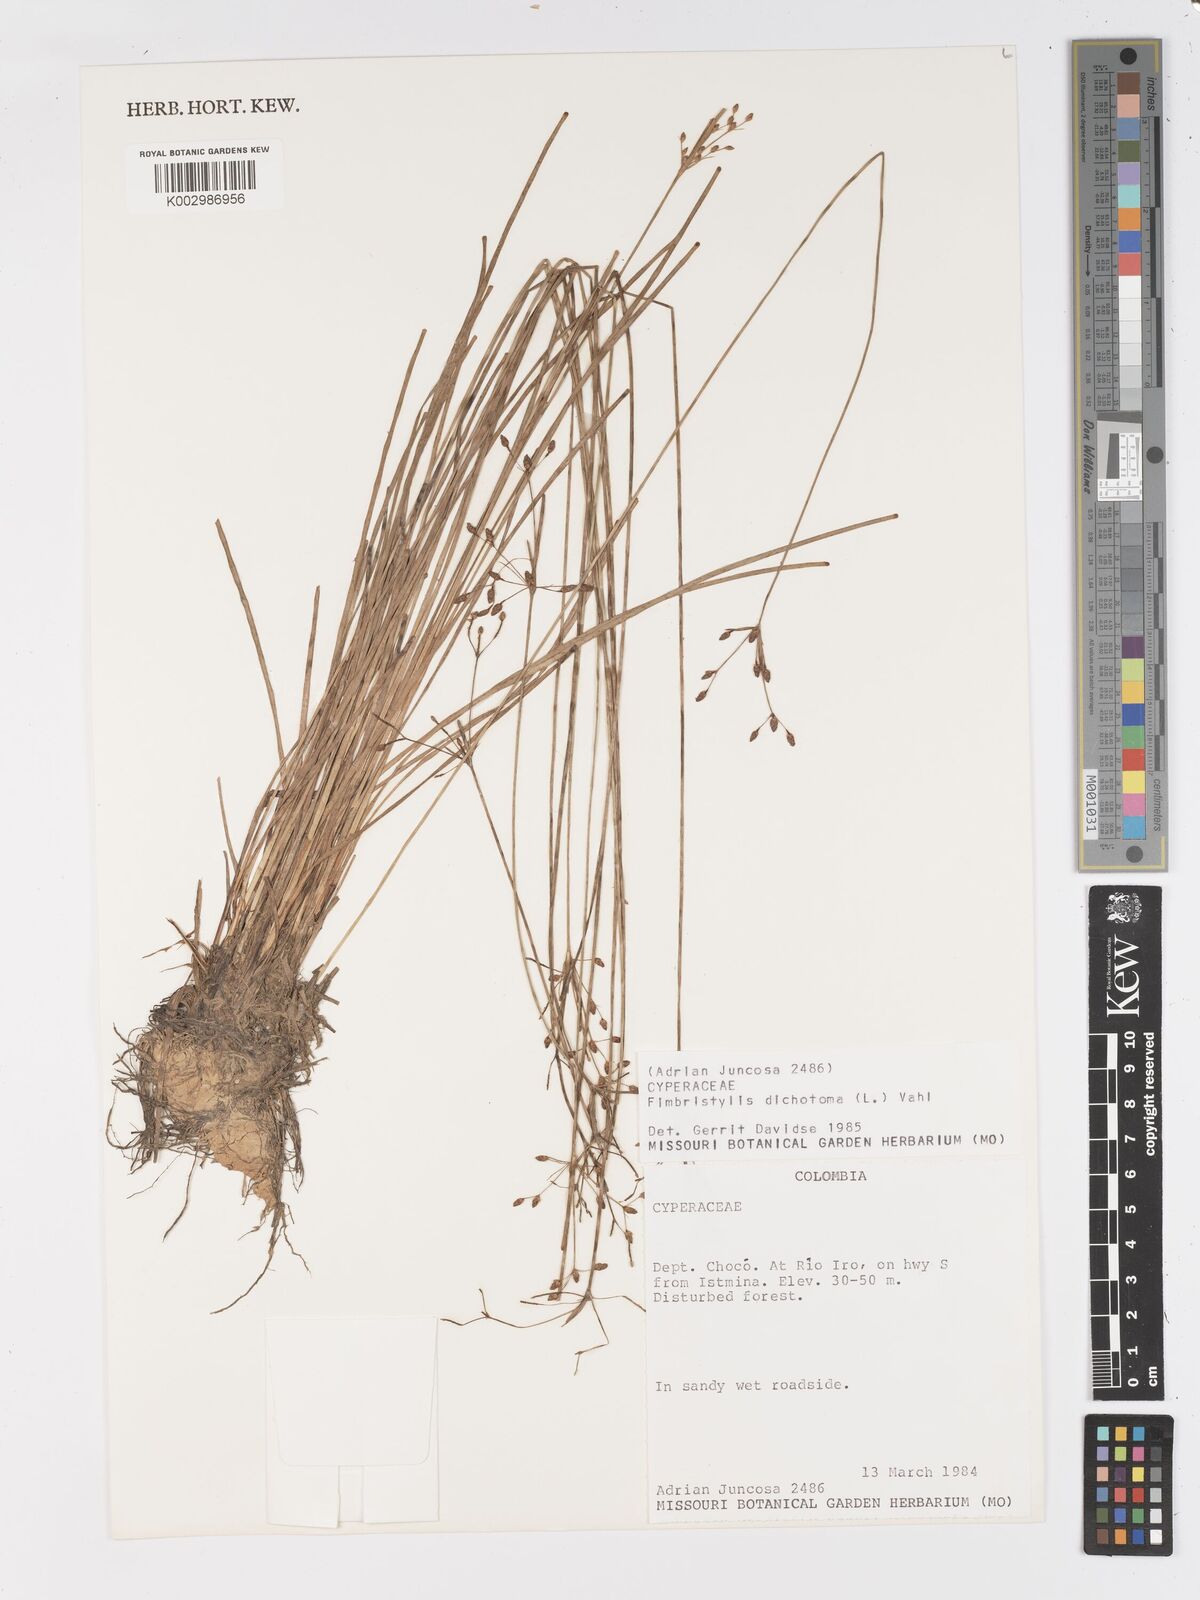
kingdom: Plantae
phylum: Tracheophyta
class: Liliopsida
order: Poales
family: Cyperaceae
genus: Fimbristylis
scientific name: Fimbristylis dichotoma
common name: Forked fimbry
